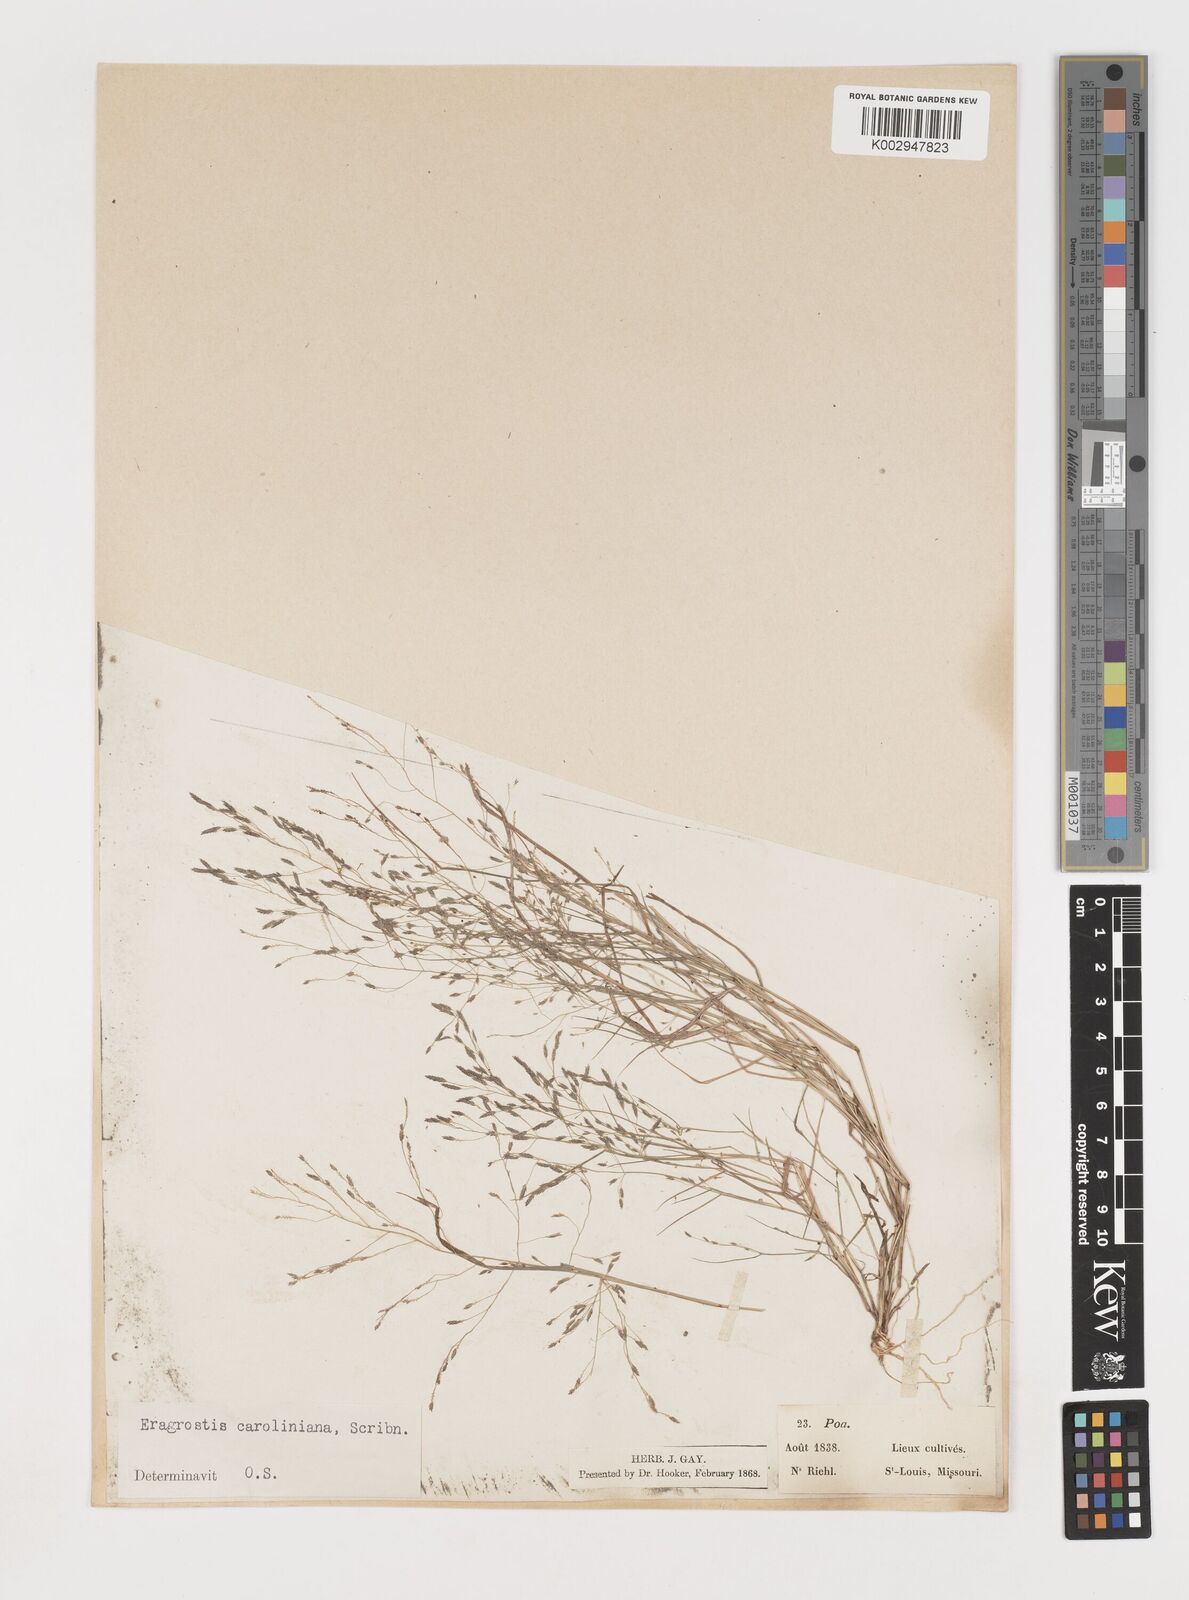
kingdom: Plantae
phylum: Tracheophyta
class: Liliopsida
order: Poales
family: Poaceae
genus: Eragrostis
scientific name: Eragrostis pectinacea
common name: Tufted lovegrass
